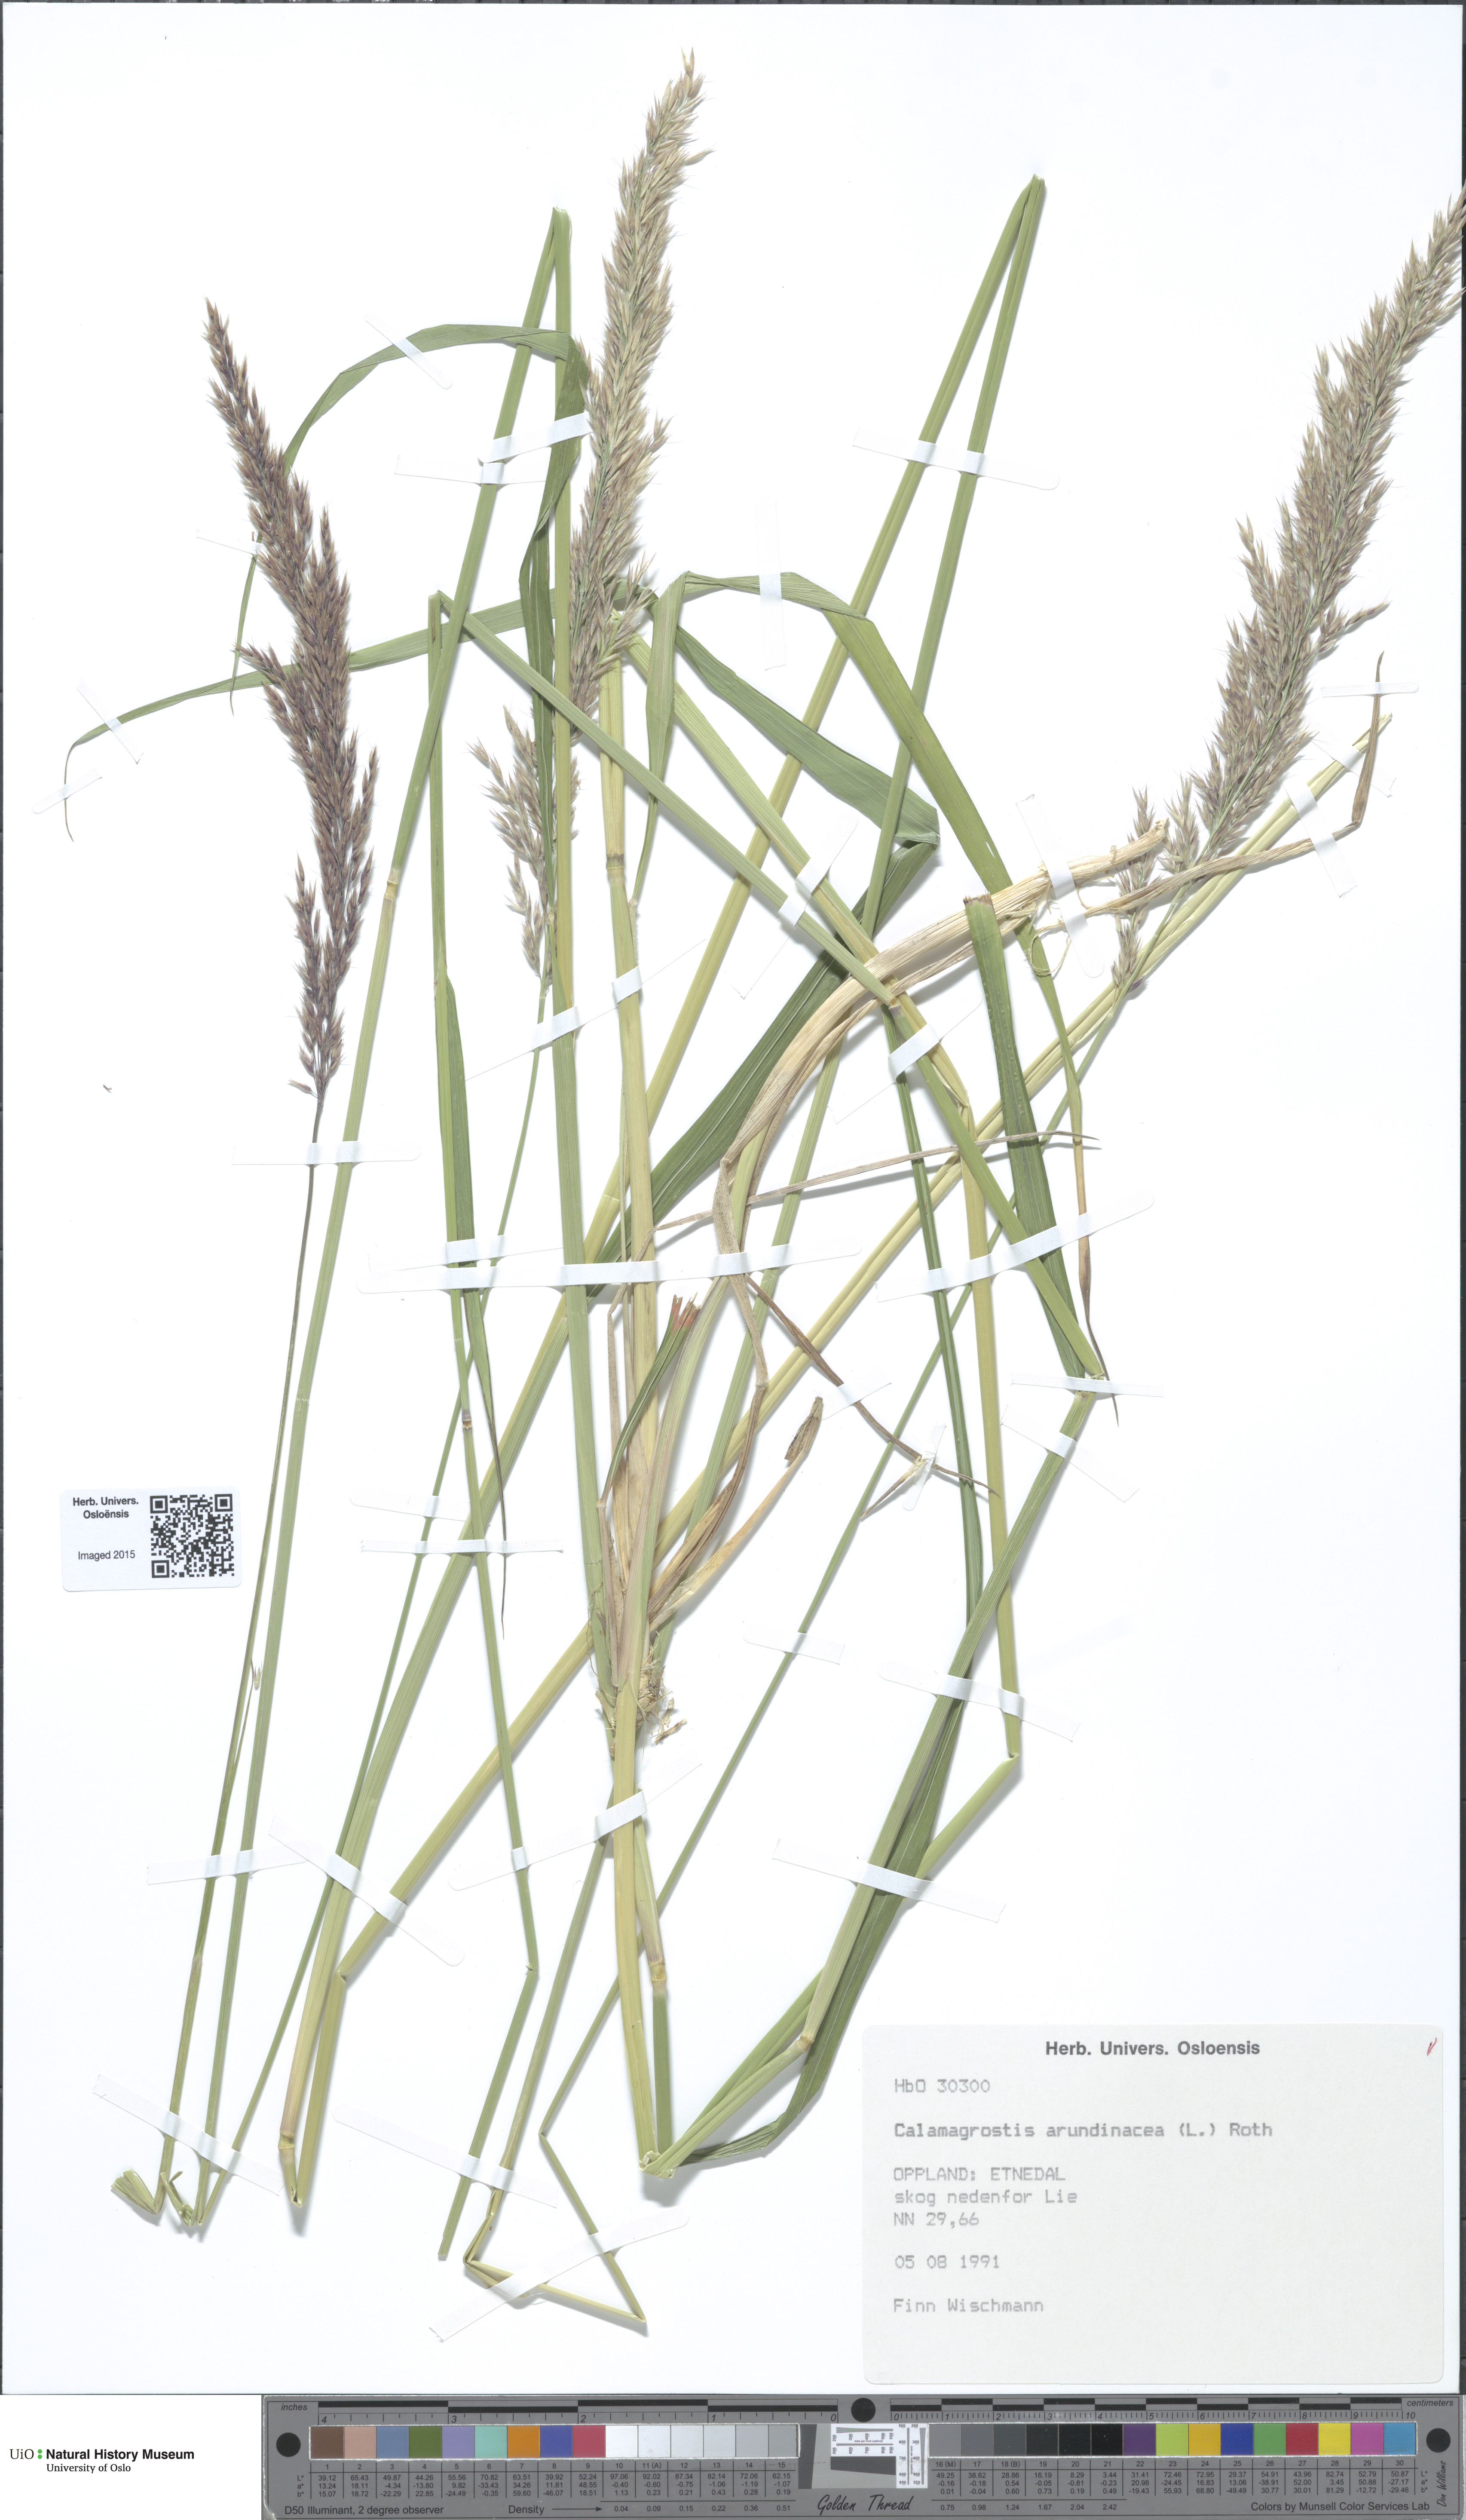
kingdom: Plantae
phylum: Tracheophyta
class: Liliopsida
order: Poales
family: Poaceae
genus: Calamagrostis
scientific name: Calamagrostis arundinacea
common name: Metskastik
